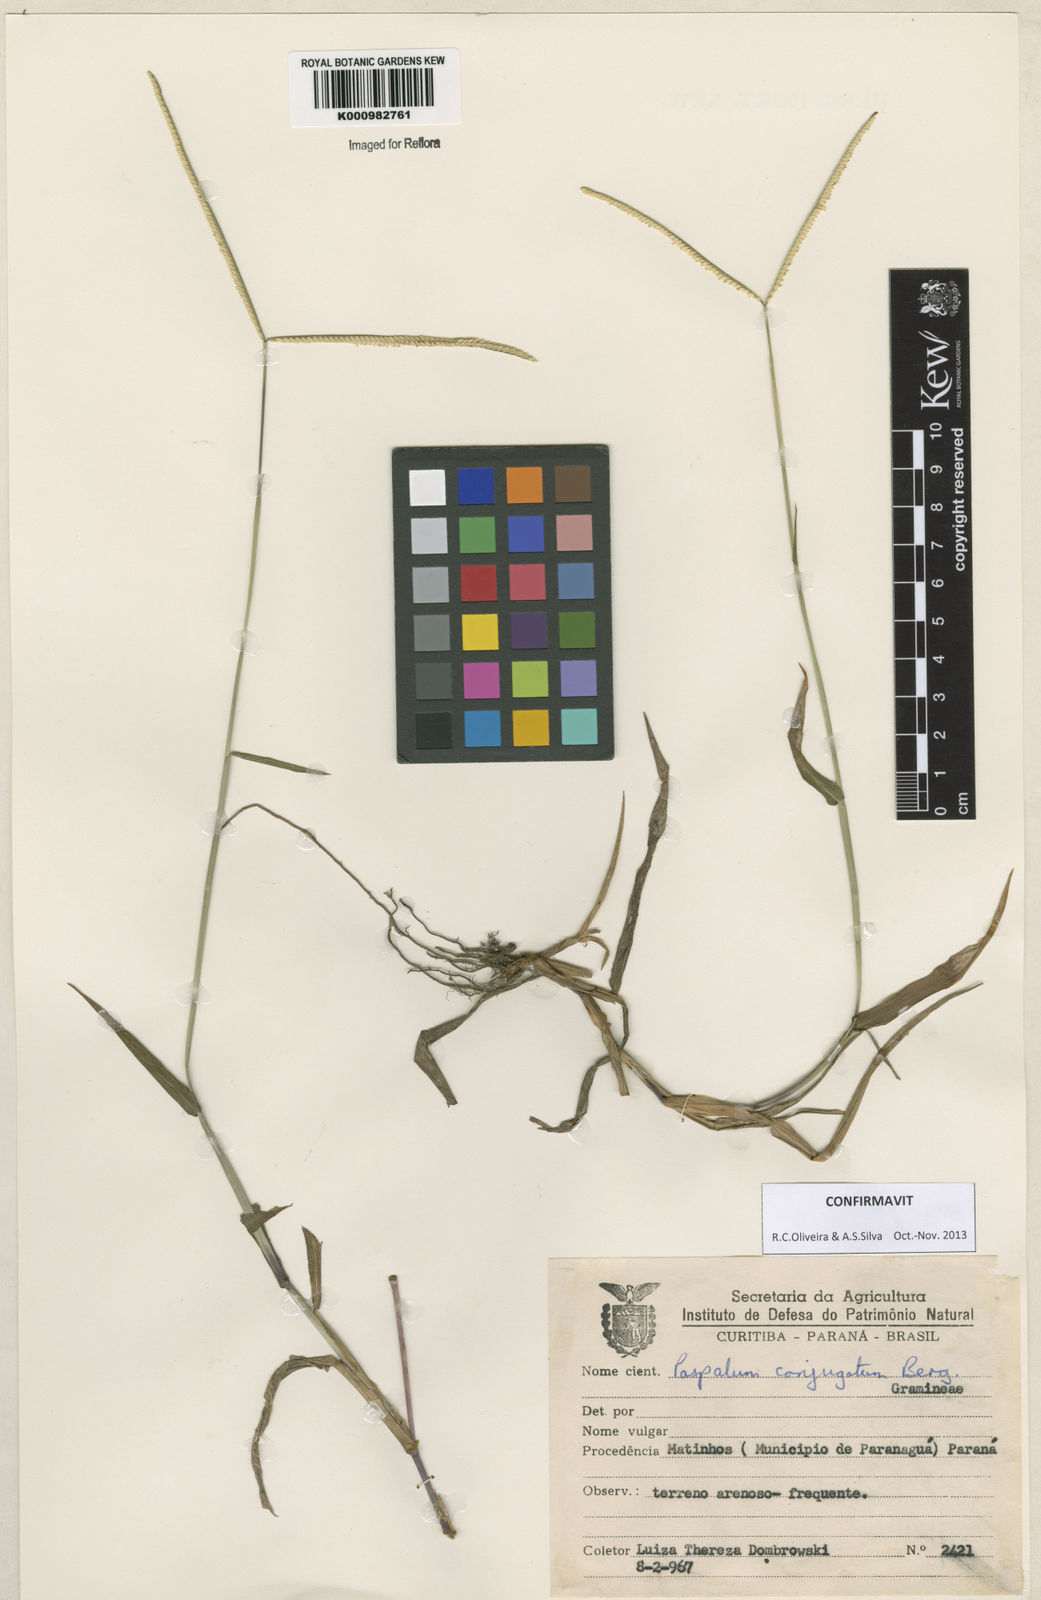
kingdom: Plantae
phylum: Tracheophyta
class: Liliopsida
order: Poales
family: Poaceae
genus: Paspalum
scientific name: Paspalum conjugatum
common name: Hilograss
